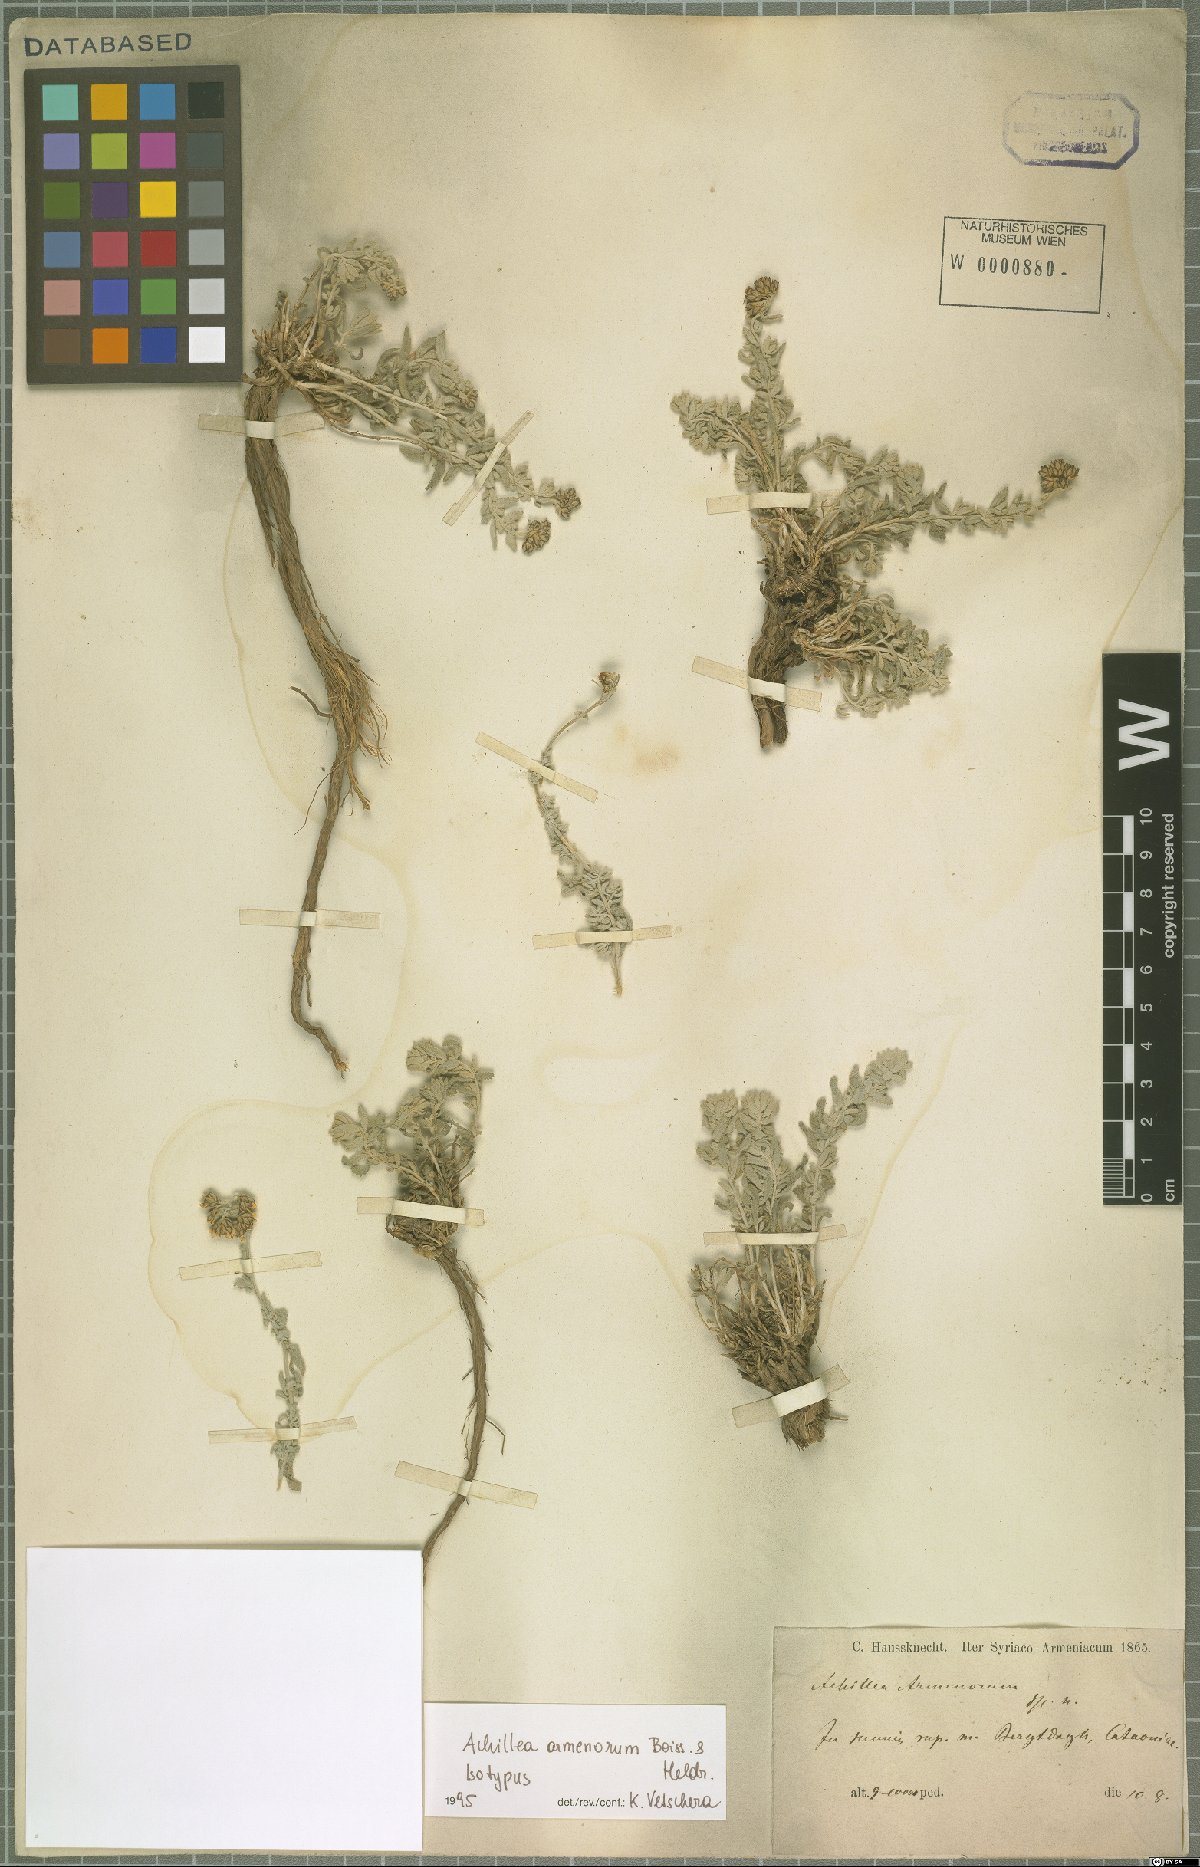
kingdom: Plantae
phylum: Tracheophyta
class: Magnoliopsida
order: Asterales
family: Asteraceae
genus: Achillea
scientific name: Achillea armenorum
